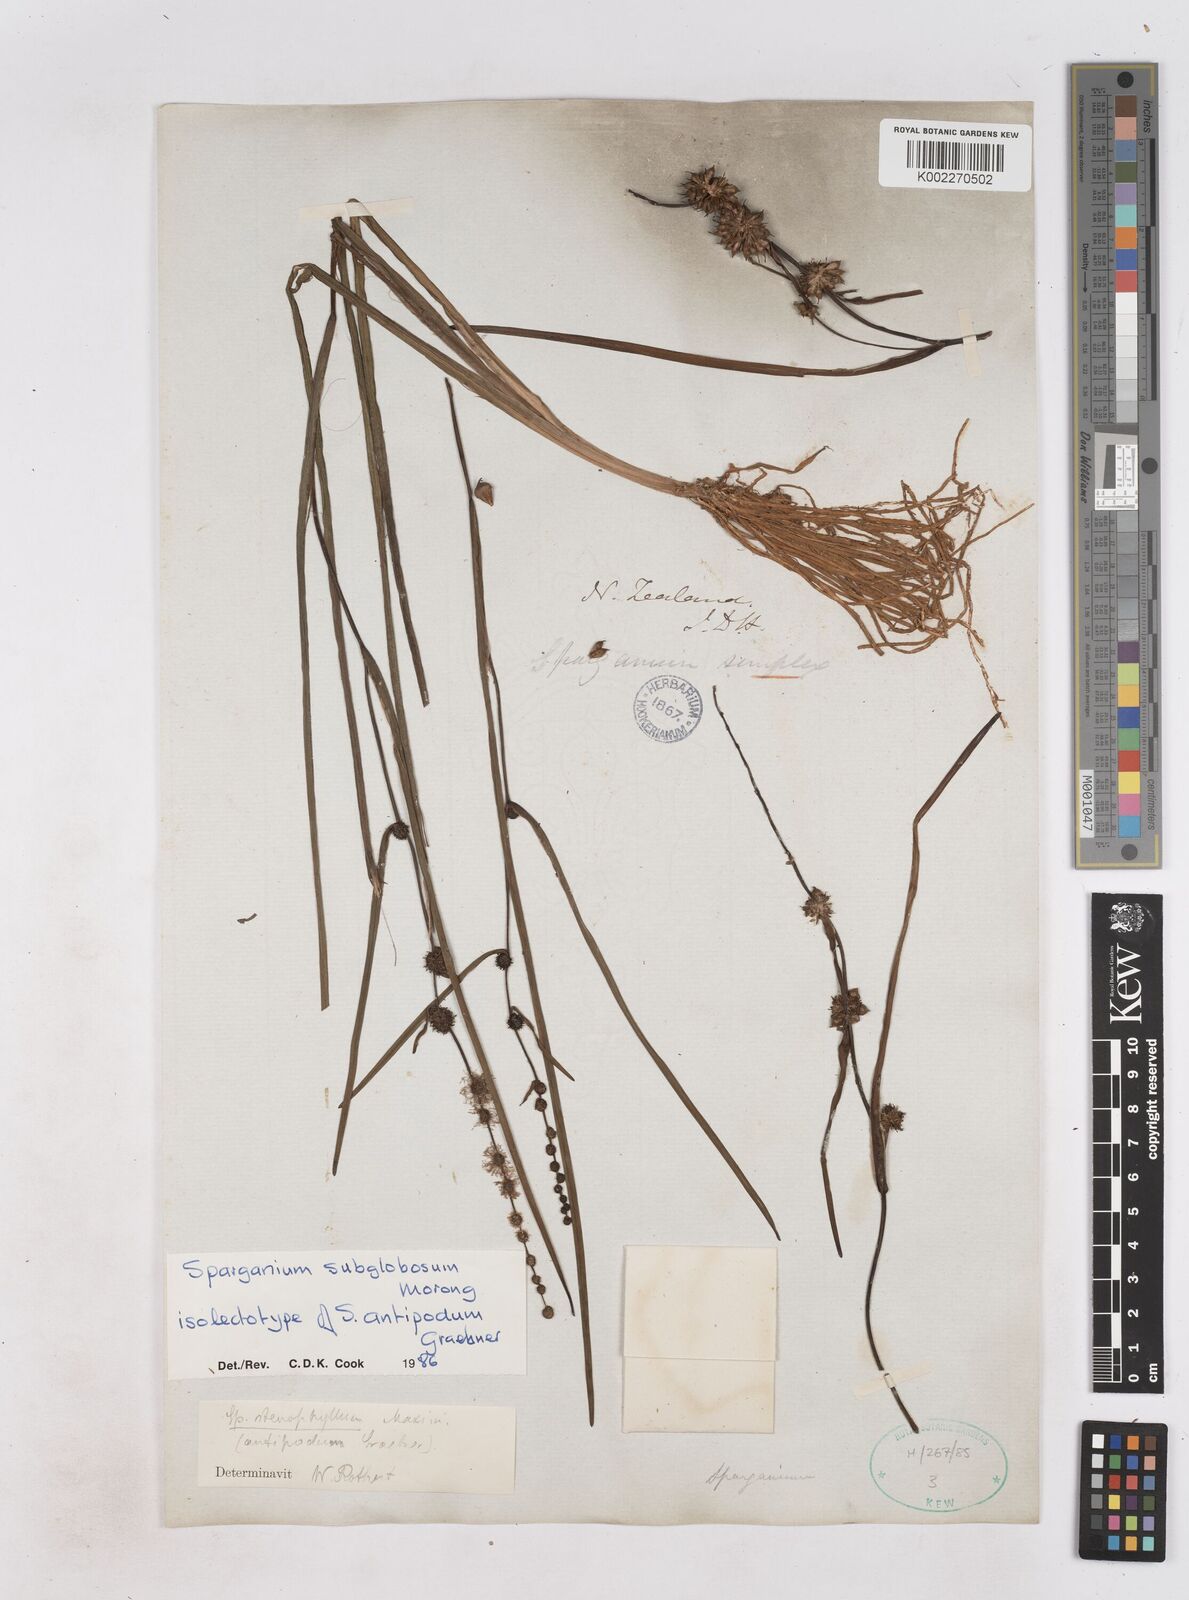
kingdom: Plantae
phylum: Tracheophyta
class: Liliopsida
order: Poales
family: Typhaceae
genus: Sparganium
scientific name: Sparganium subglobosum
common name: Burr­-reed
